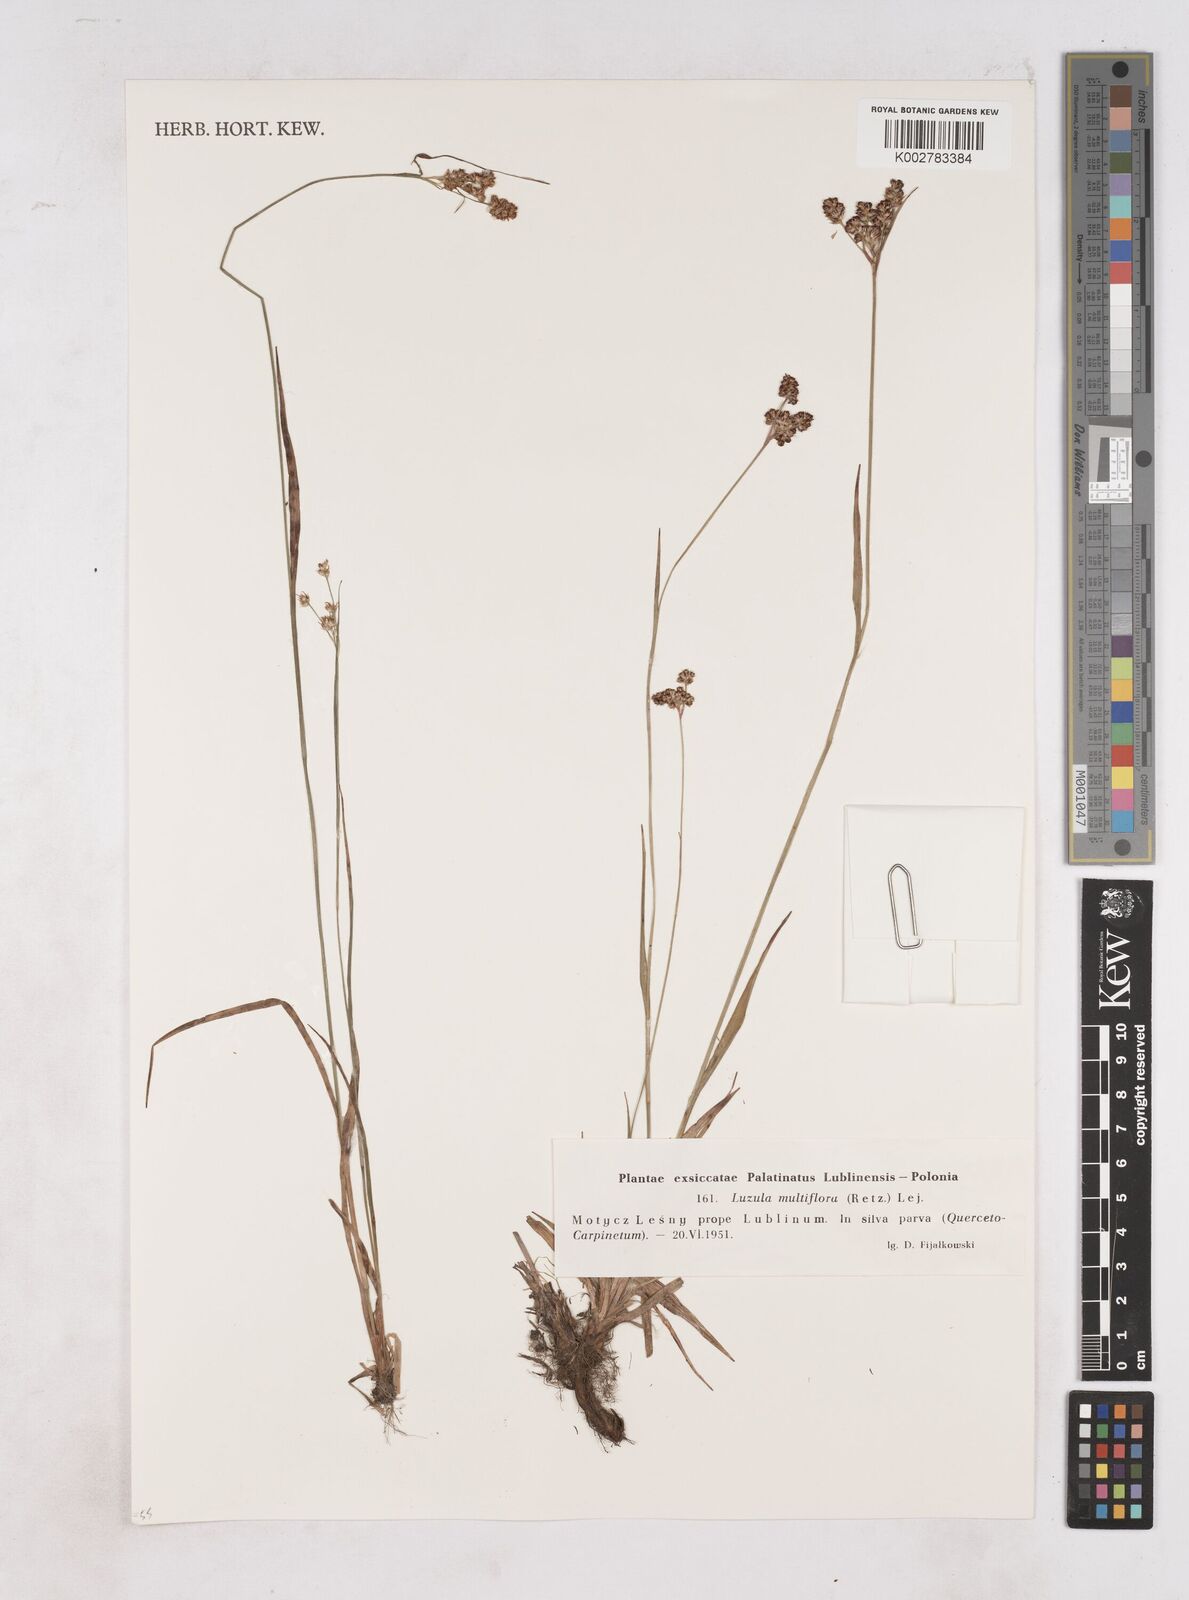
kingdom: Plantae
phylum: Tracheophyta
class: Liliopsida
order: Poales
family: Juncaceae
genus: Luzula
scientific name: Luzula multiflora
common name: Heath wood-rush
